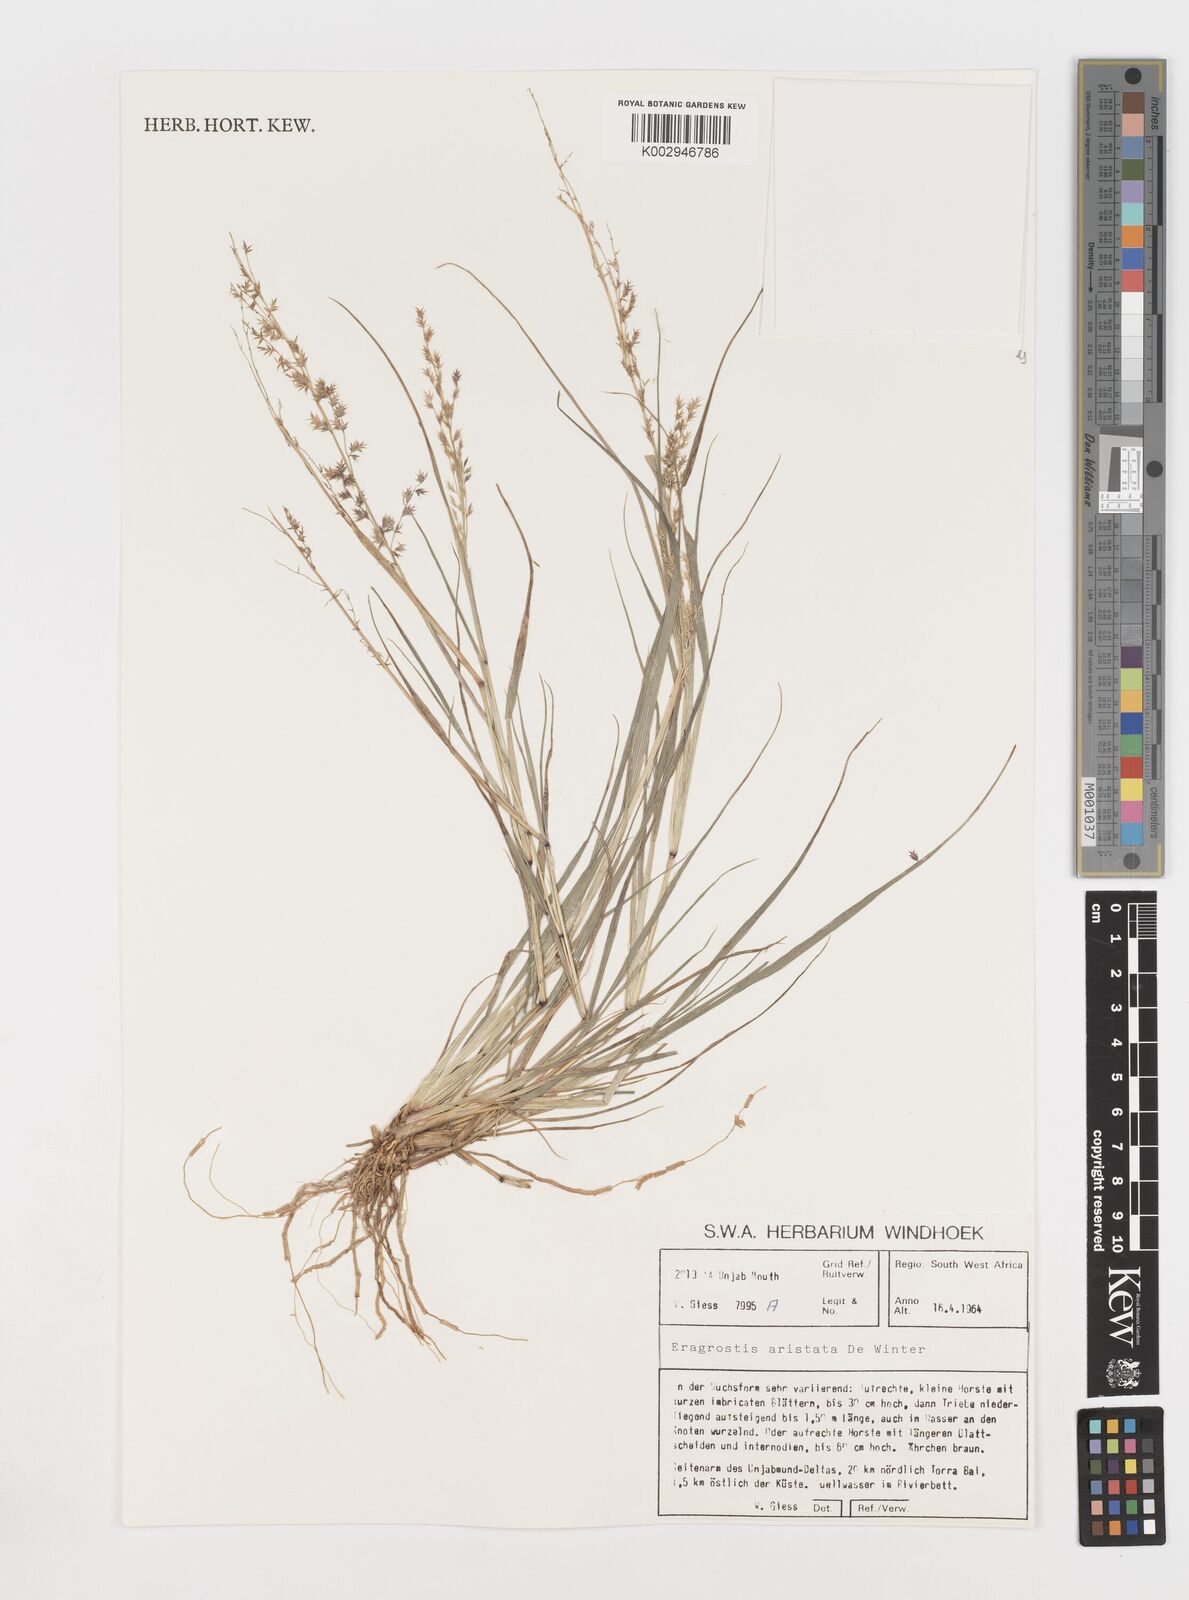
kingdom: Plantae
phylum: Tracheophyta
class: Liliopsida
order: Poales
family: Poaceae
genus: Eragrostis
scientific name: Eragrostis aristata
